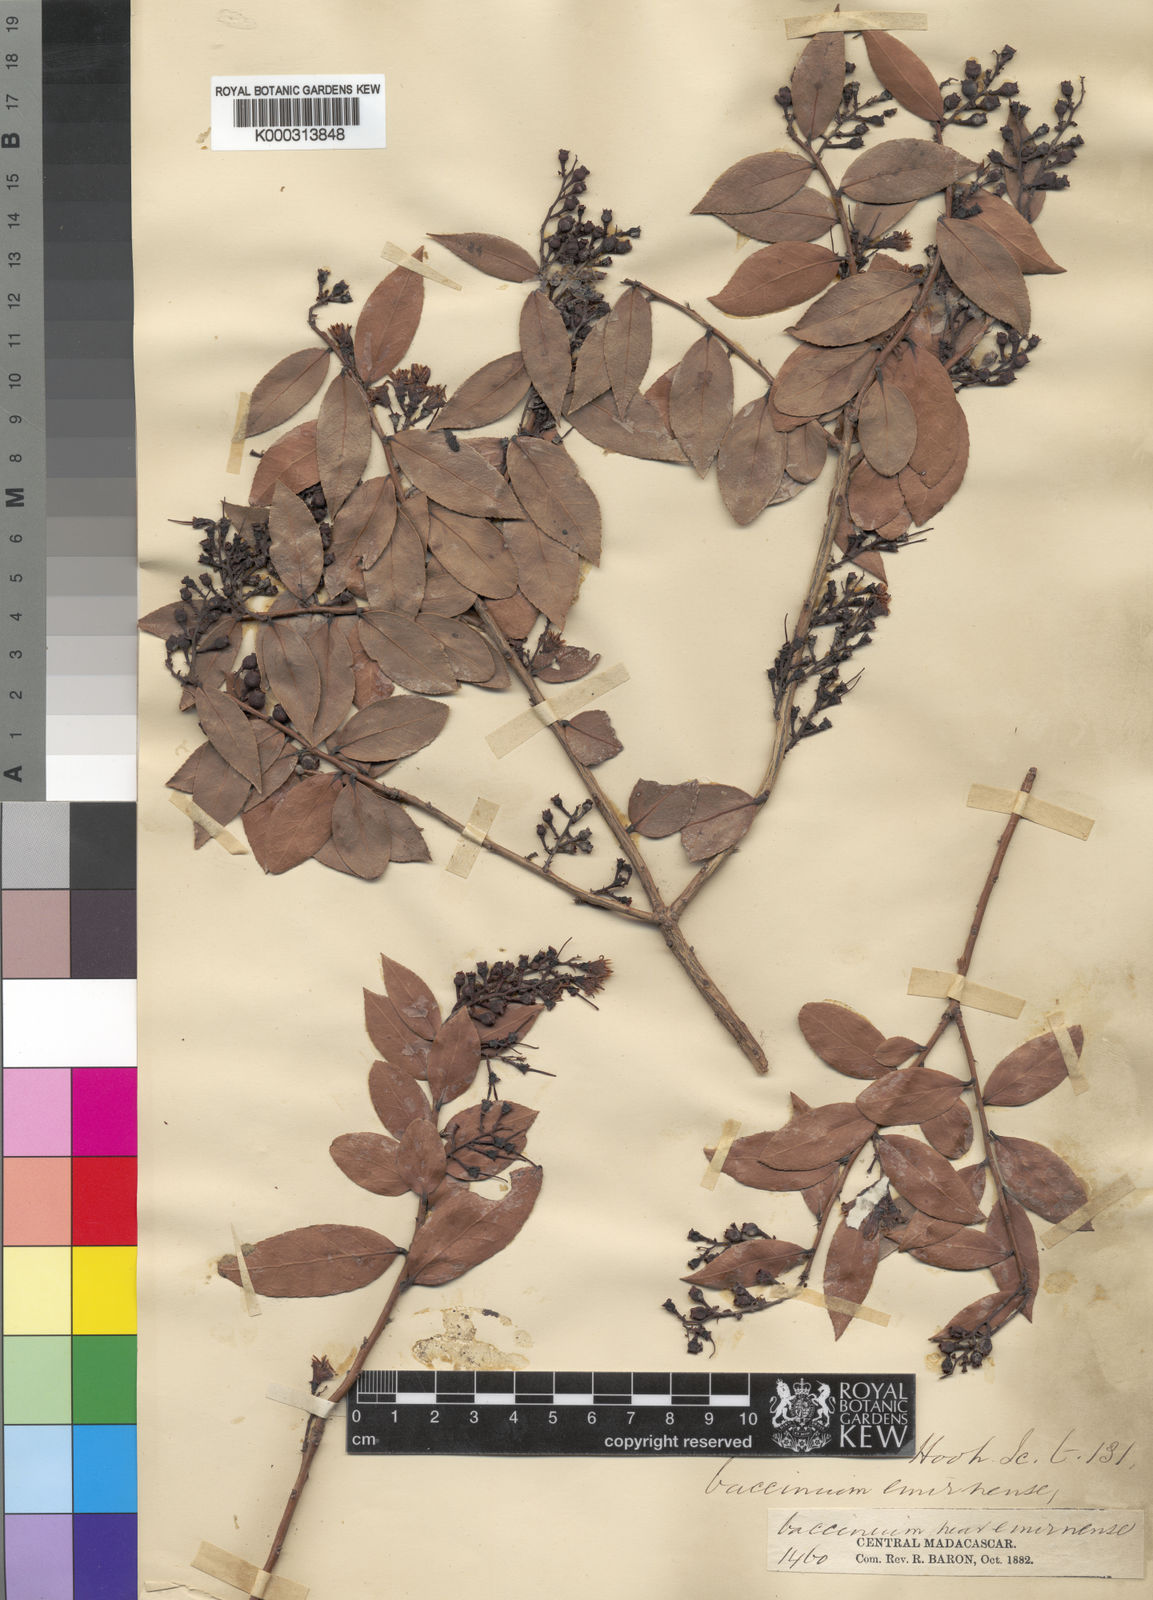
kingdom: Plantae
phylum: Tracheophyta
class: Magnoliopsida
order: Ericales
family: Ericaceae
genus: Vaccinium
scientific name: Vaccinium madagascariense
